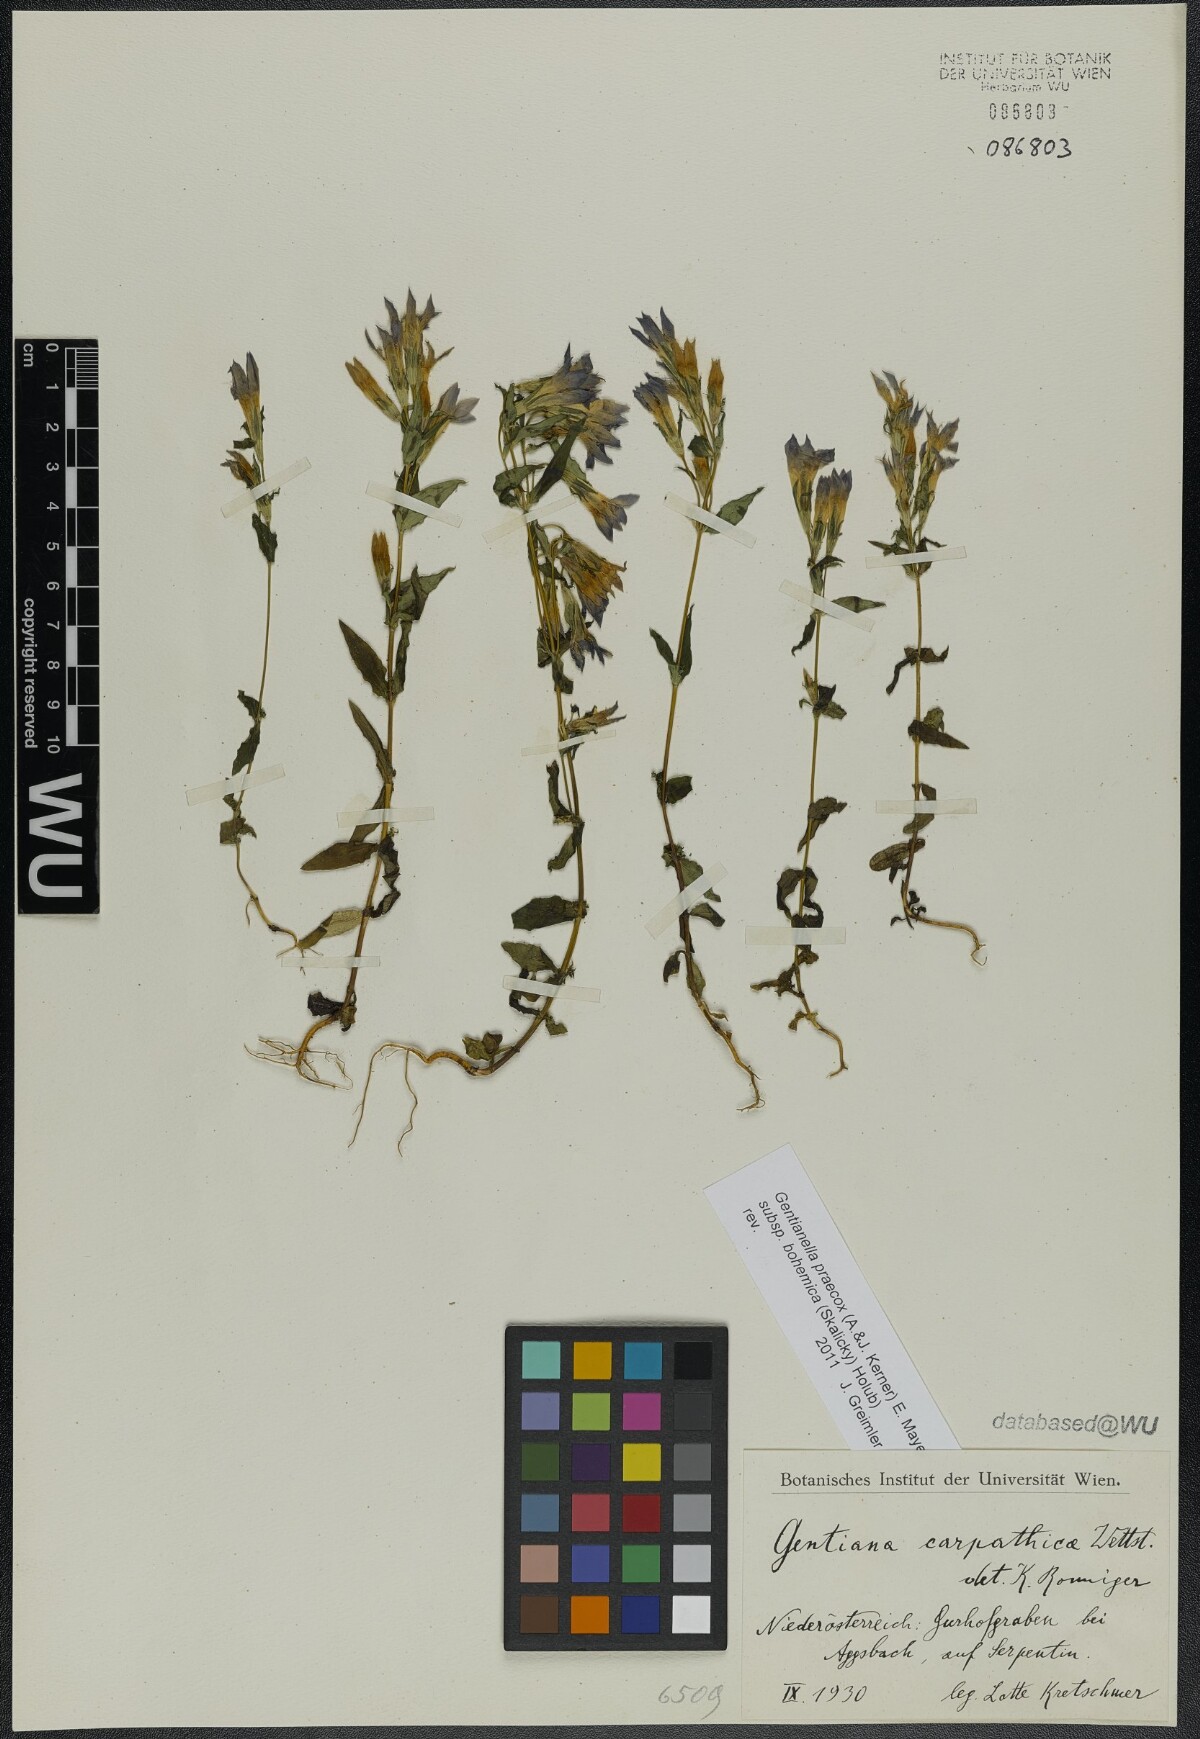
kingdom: Plantae
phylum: Tracheophyta
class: Magnoliopsida
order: Gentianales
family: Gentianaceae
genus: Gentianella
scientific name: Gentianella praecox
